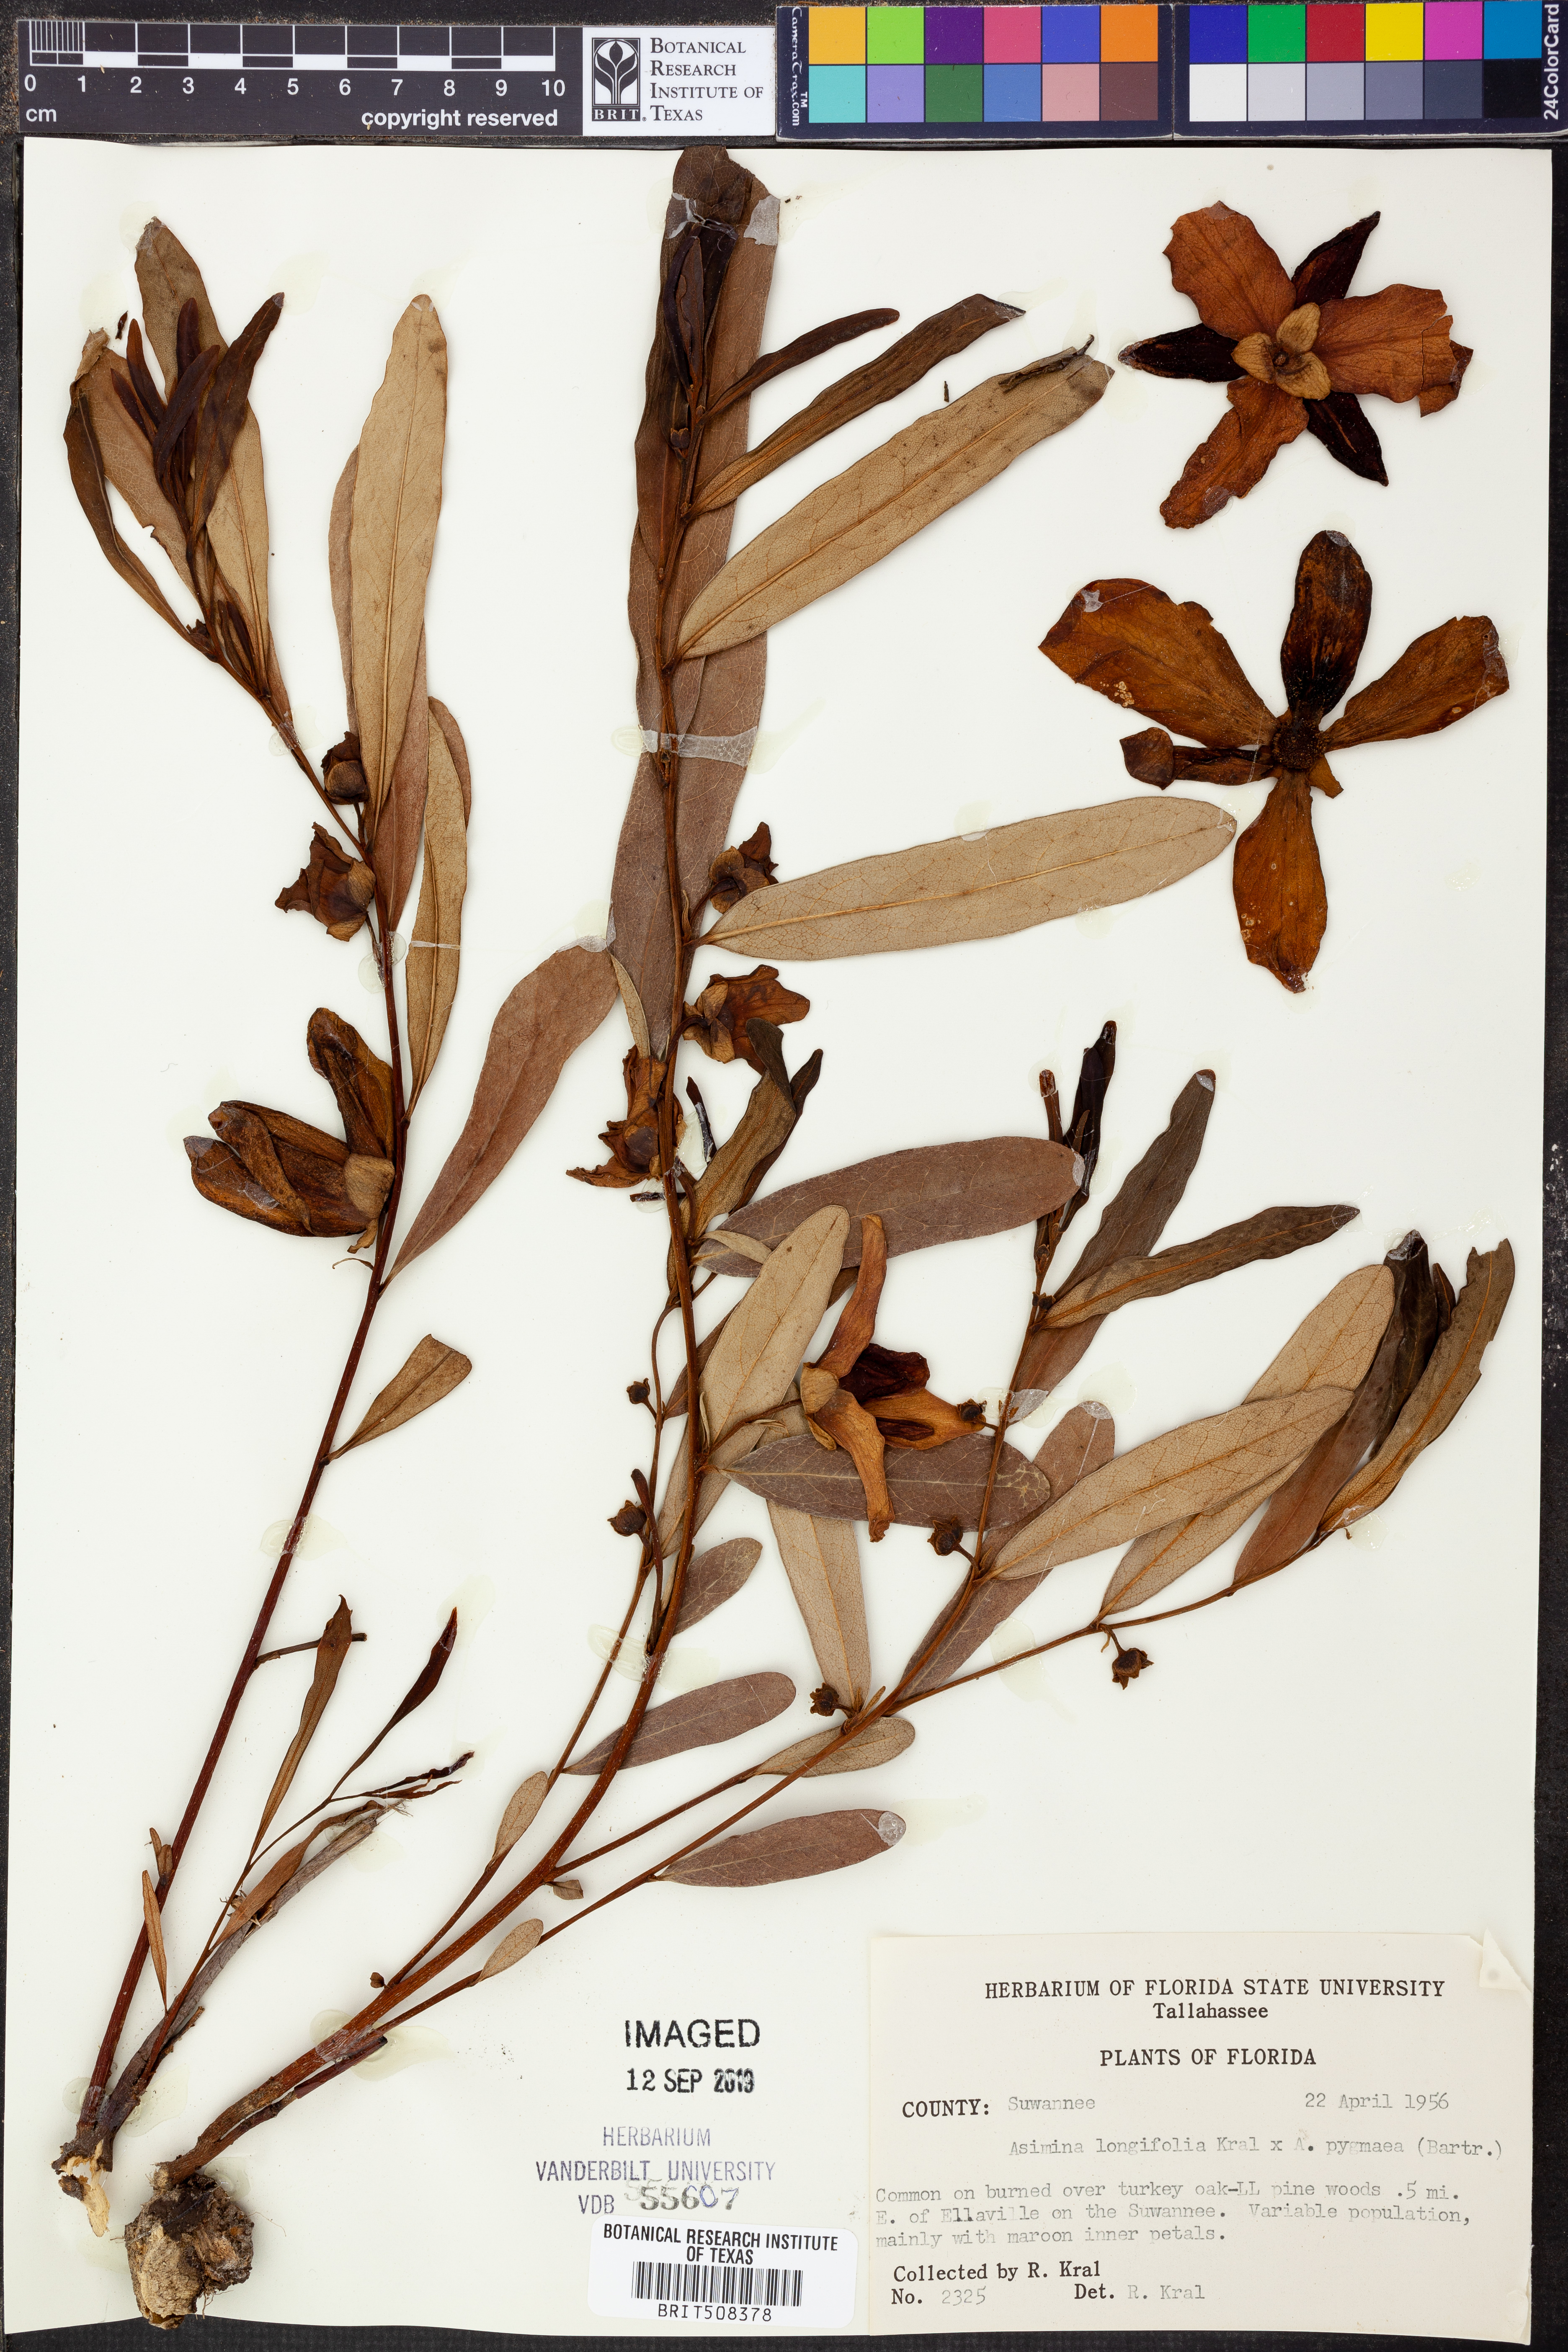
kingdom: Plantae
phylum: Tracheophyta
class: Magnoliopsida
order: Magnoliales
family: Annonaceae
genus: Asimina
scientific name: Asimina longifolia
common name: Polecatbush
